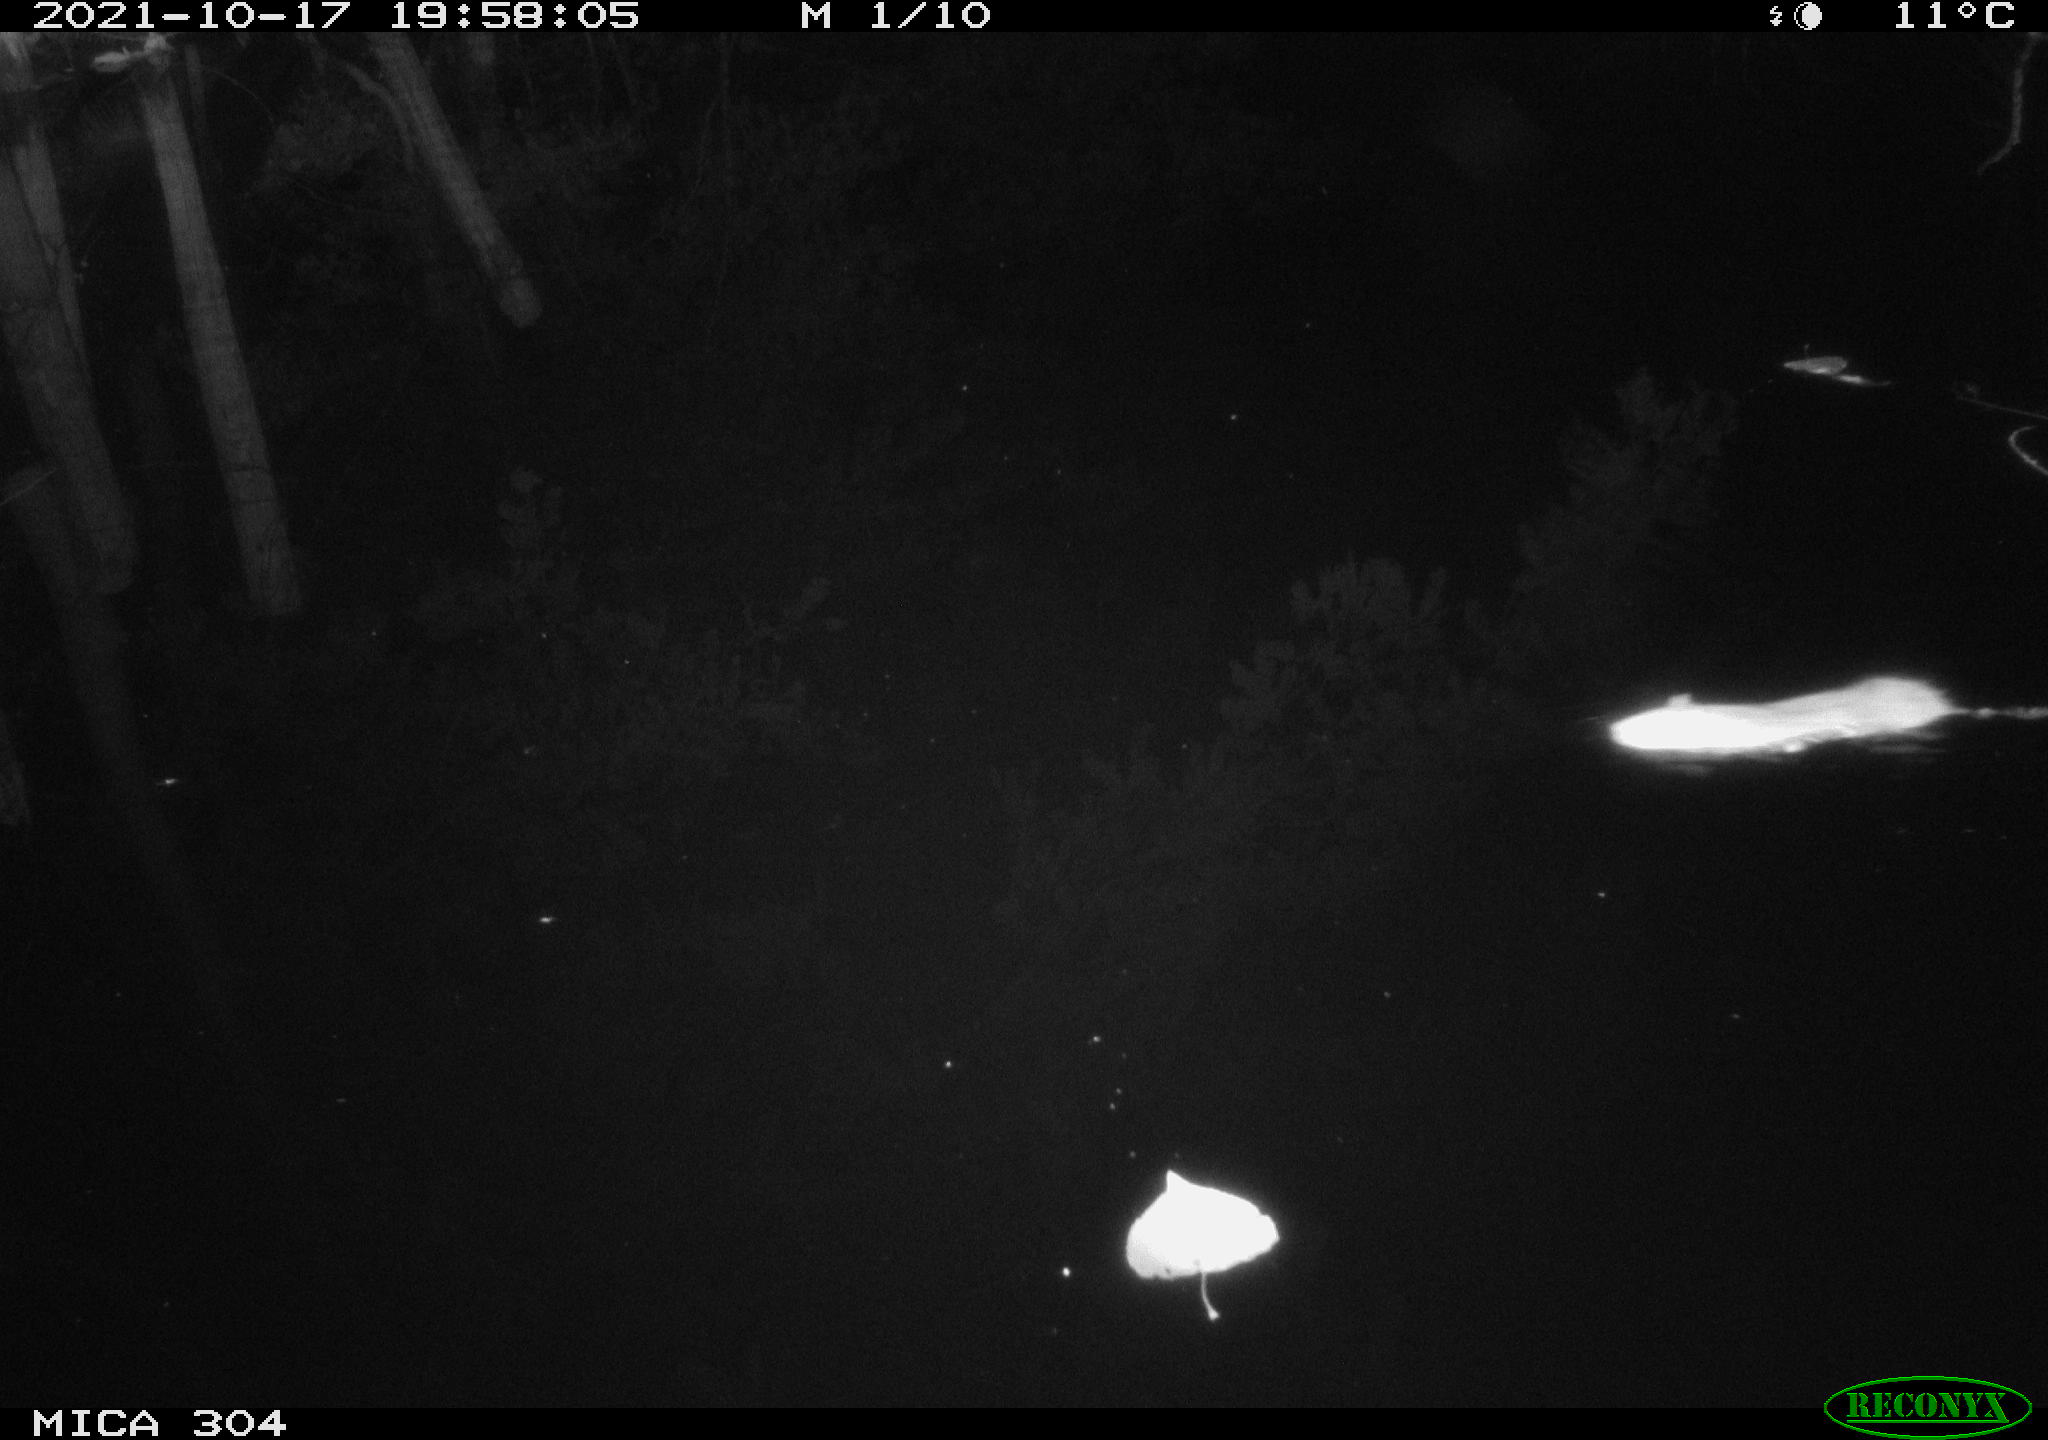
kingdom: Animalia
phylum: Chordata
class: Mammalia
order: Rodentia
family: Muridae
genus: Rattus
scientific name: Rattus norvegicus
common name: Brown rat
